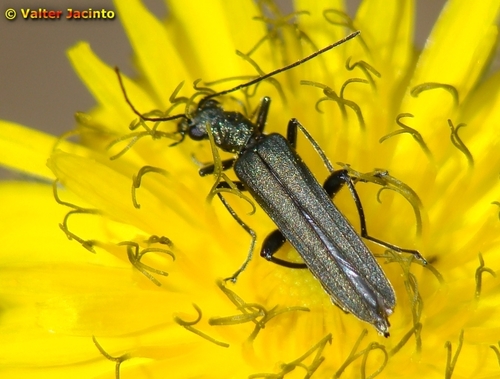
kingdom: Animalia
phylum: Arthropoda
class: Insecta
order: Coleoptera
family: Oedemeridae
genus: Oedemera
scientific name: Oedemera lurida
